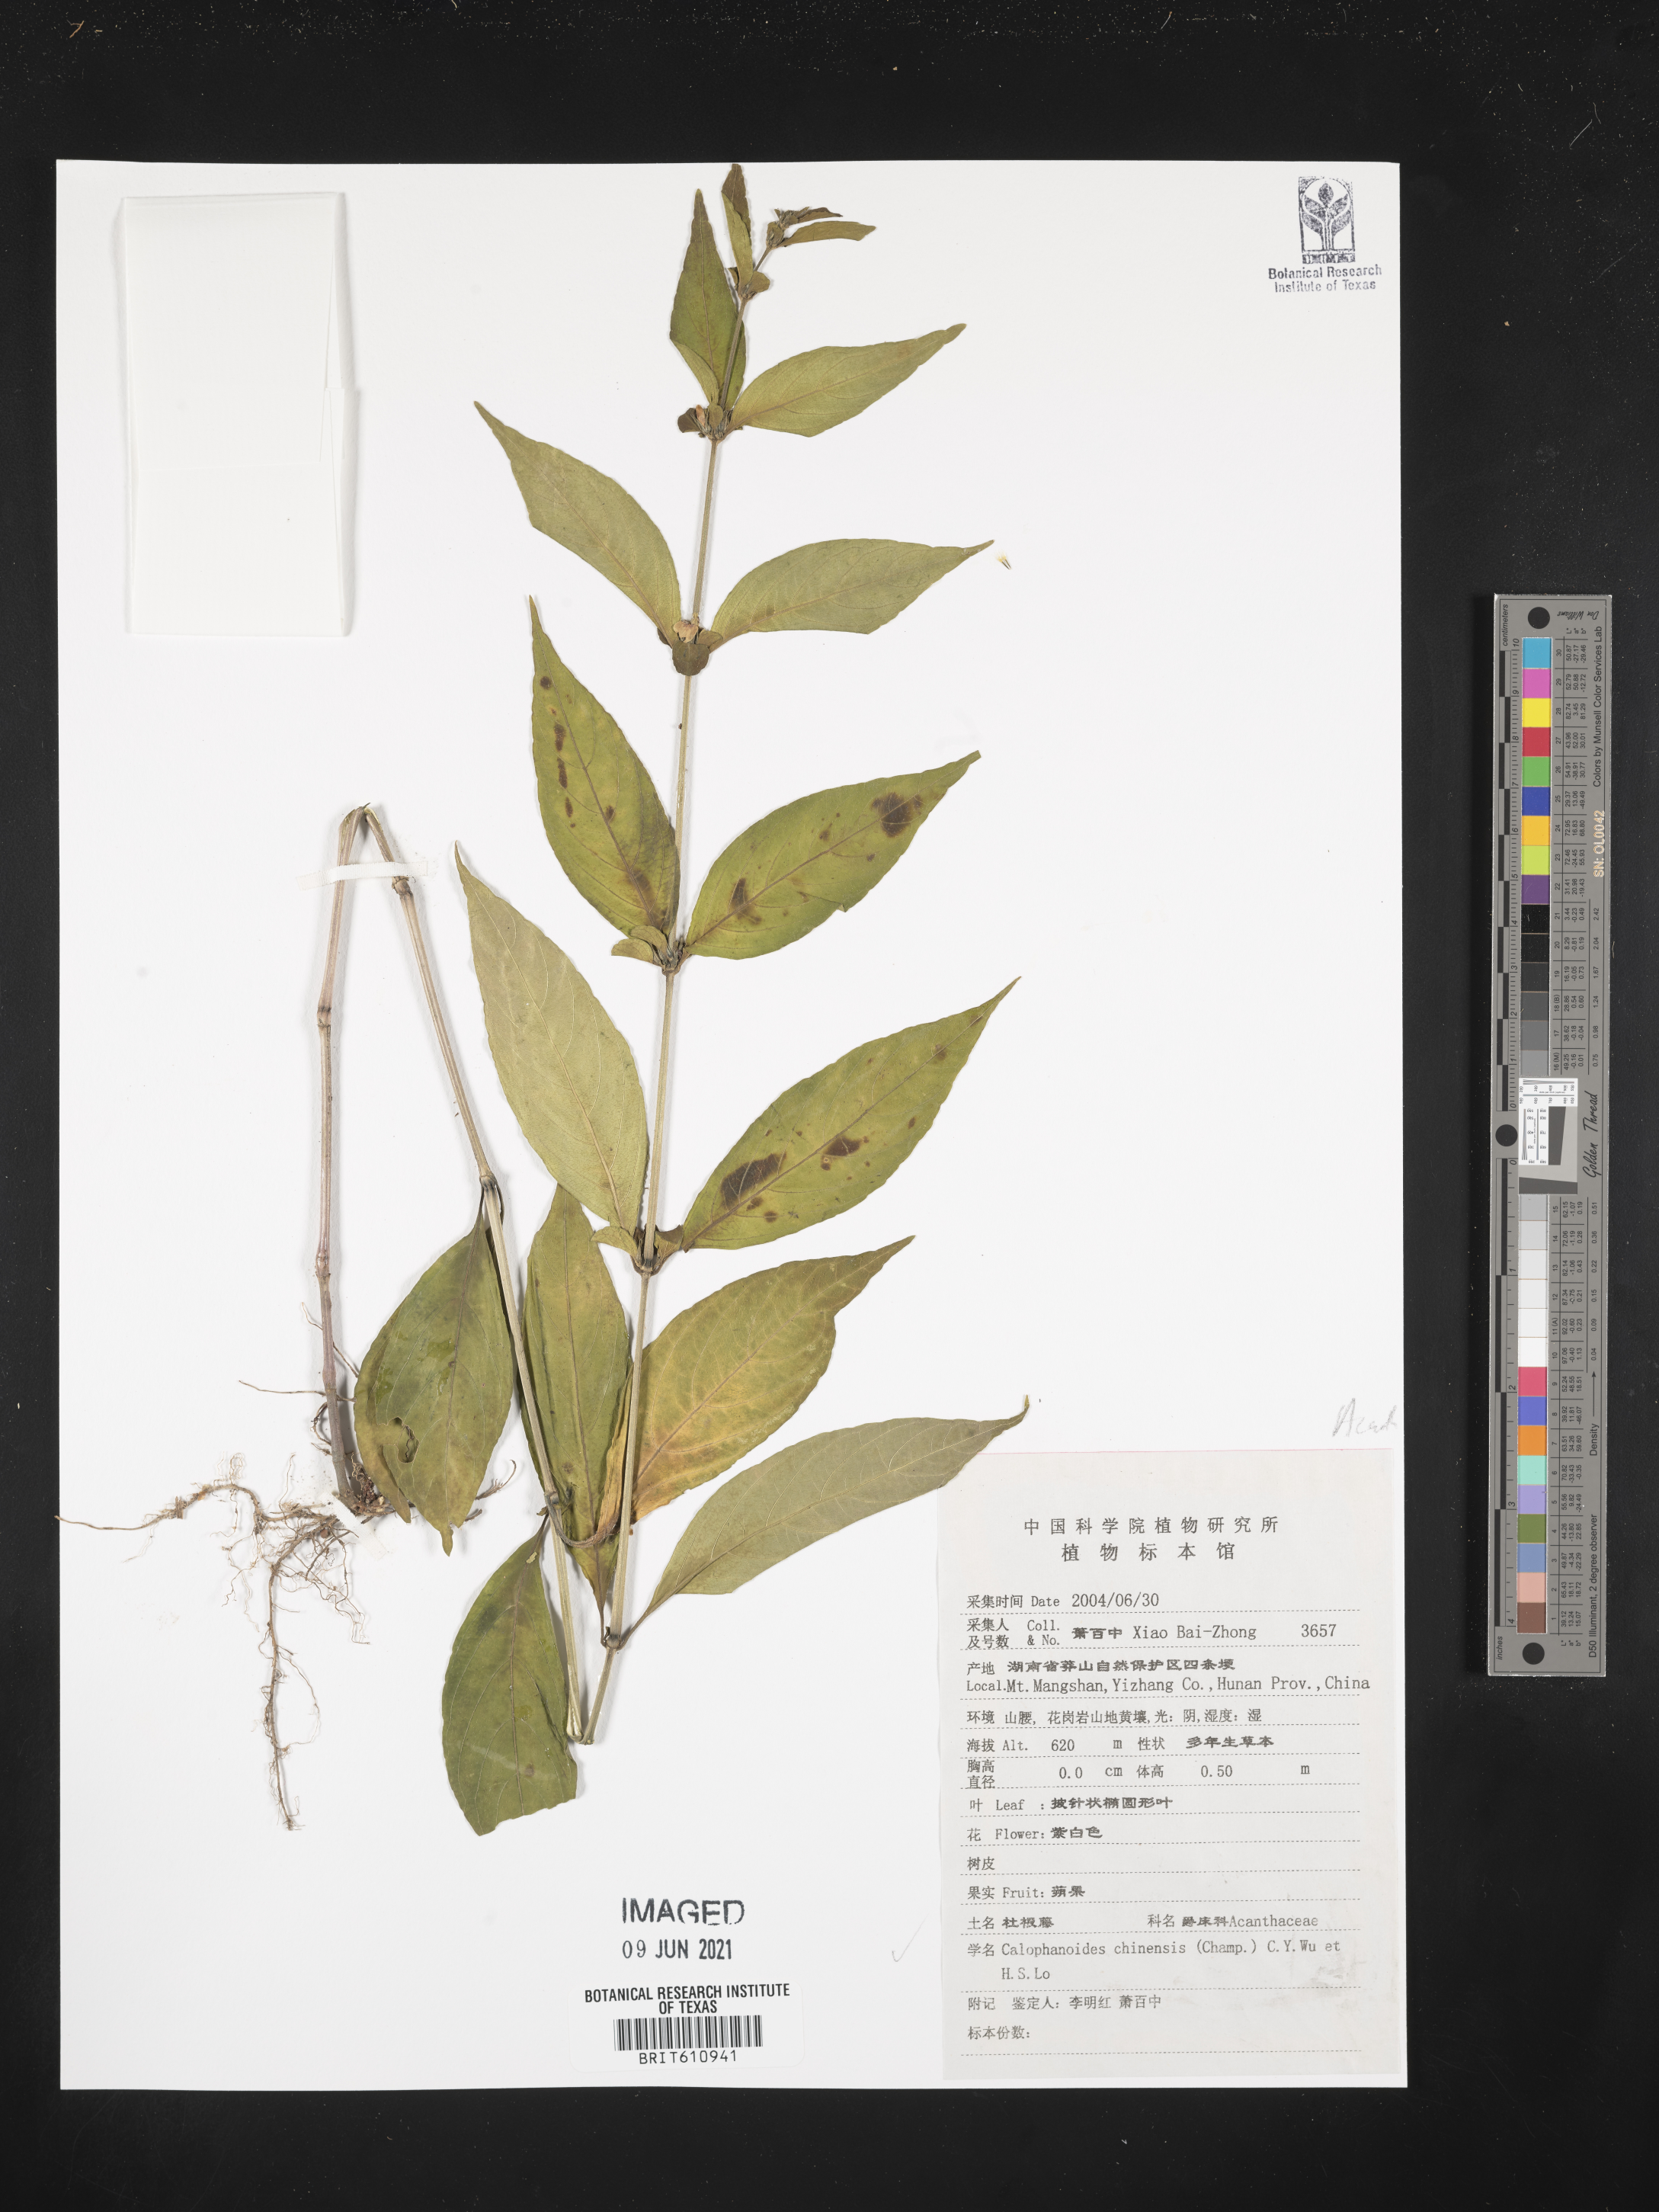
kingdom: Plantae
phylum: Tracheophyta
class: Magnoliopsida
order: Lamiales
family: Acanthaceae
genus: Justicia
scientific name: Justicia championii
